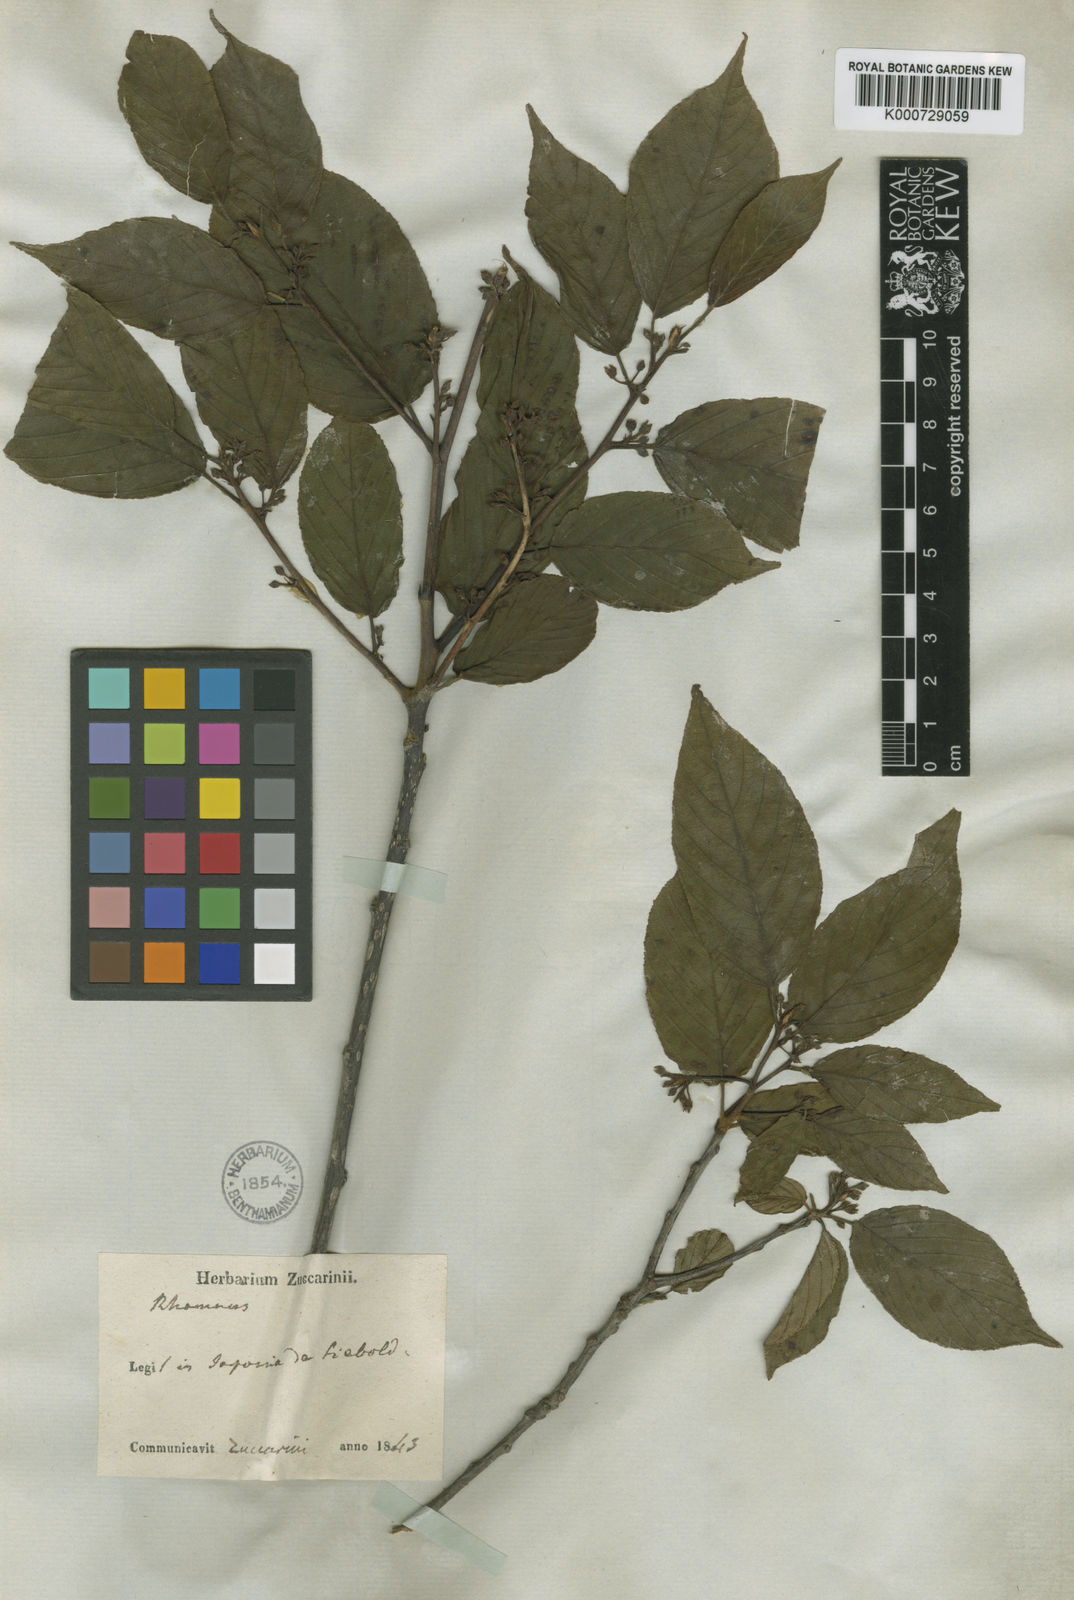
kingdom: Plantae
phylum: Tracheophyta
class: Magnoliopsida
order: Rosales
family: Rhamnaceae
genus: Frangula
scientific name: Frangula crenata
